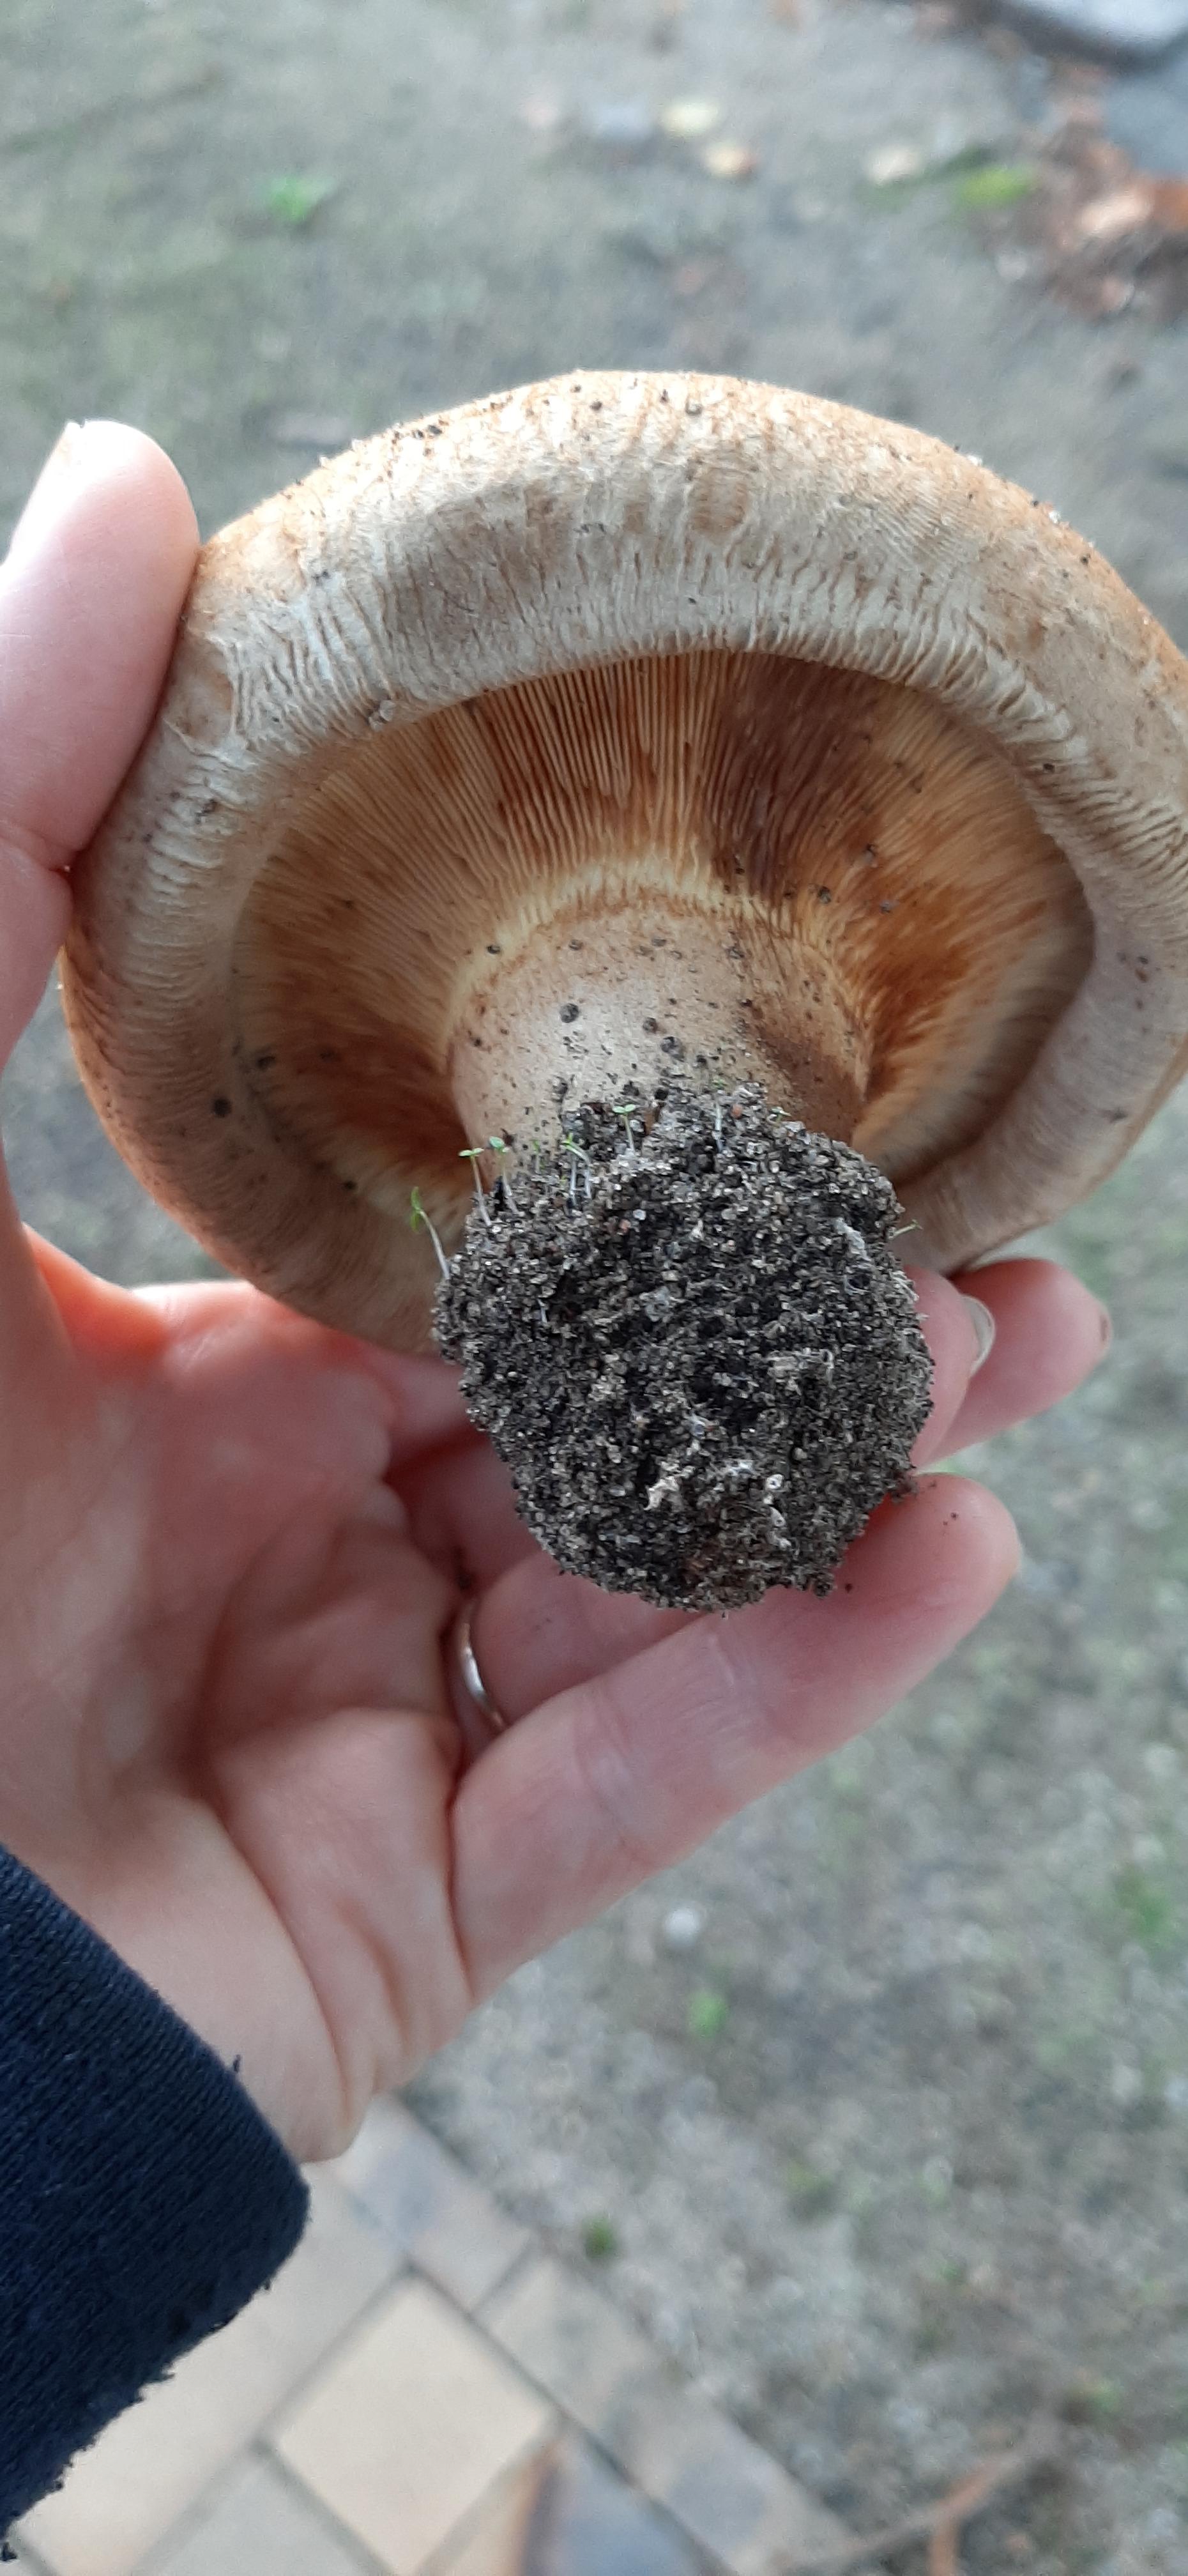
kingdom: Fungi
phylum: Basidiomycota
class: Agaricomycetes
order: Boletales
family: Paxillaceae
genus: Paxillus
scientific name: Paxillus
